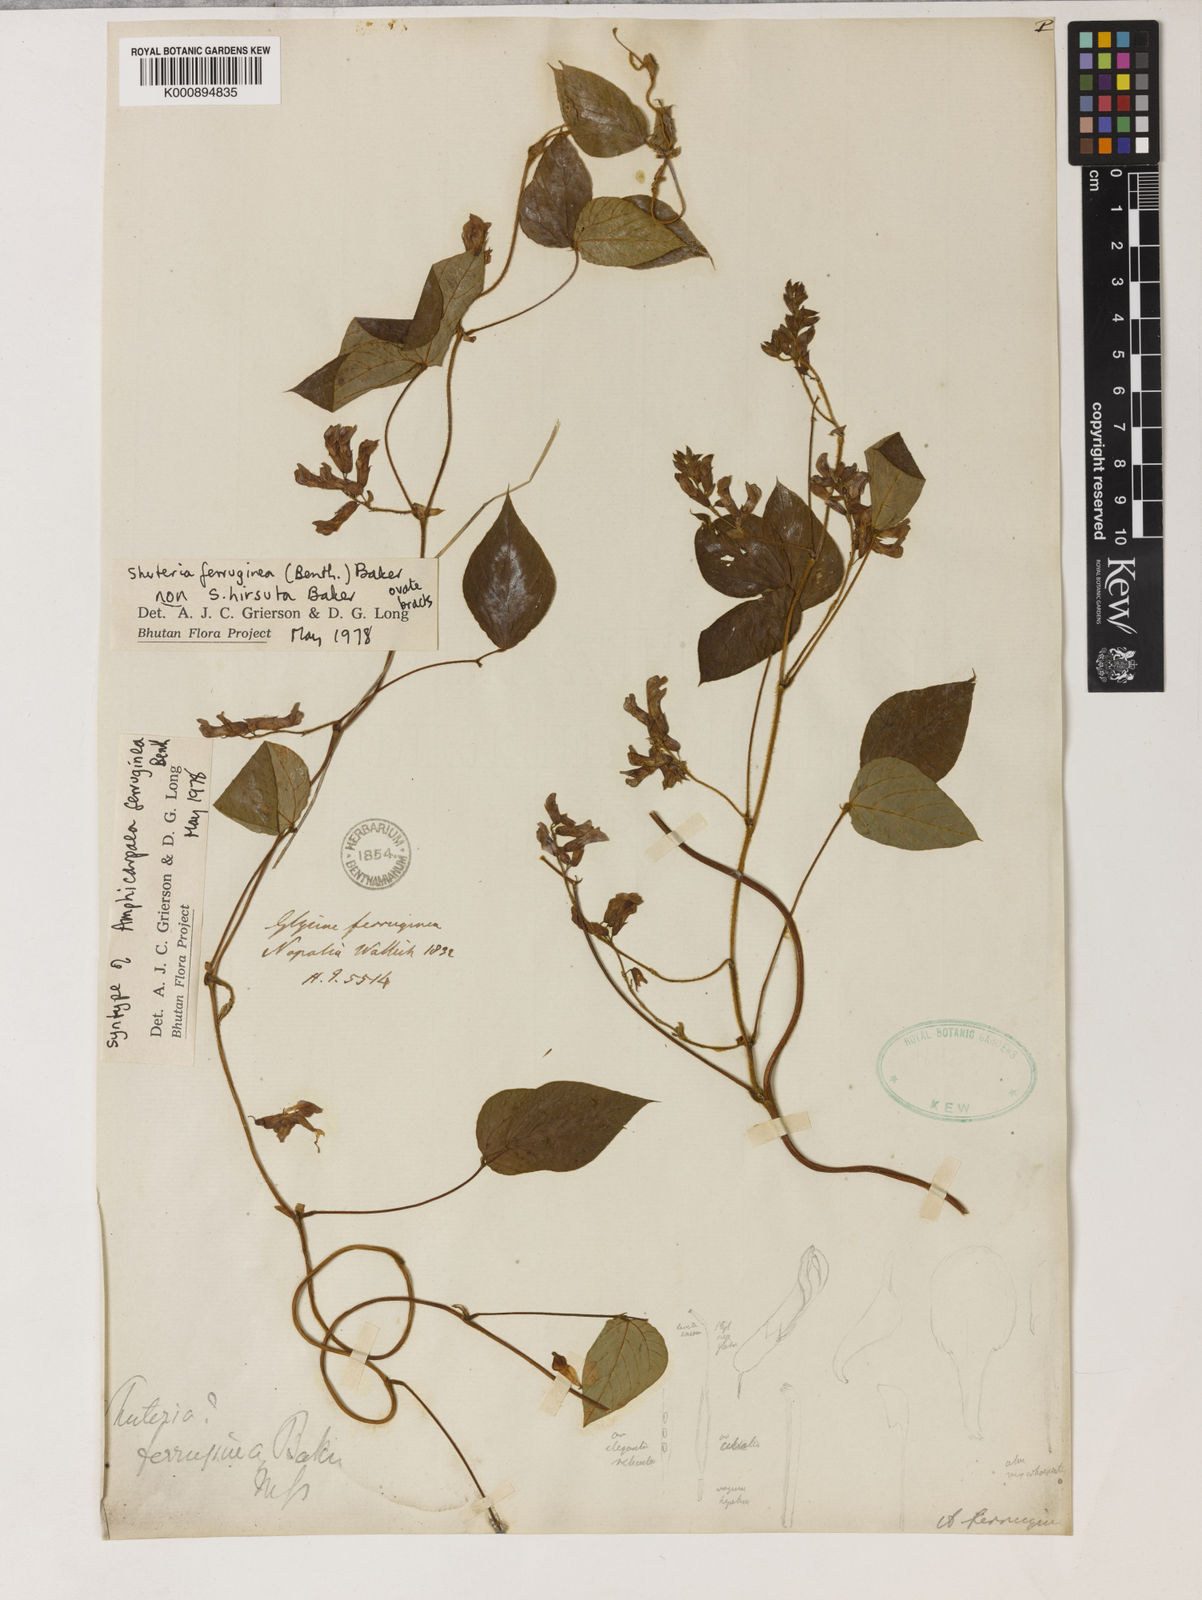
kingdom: Plantae
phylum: Tracheophyta
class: Magnoliopsida
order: Fabales
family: Fabaceae
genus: Amphicarpaea
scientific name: Amphicarpaea ferruginea
